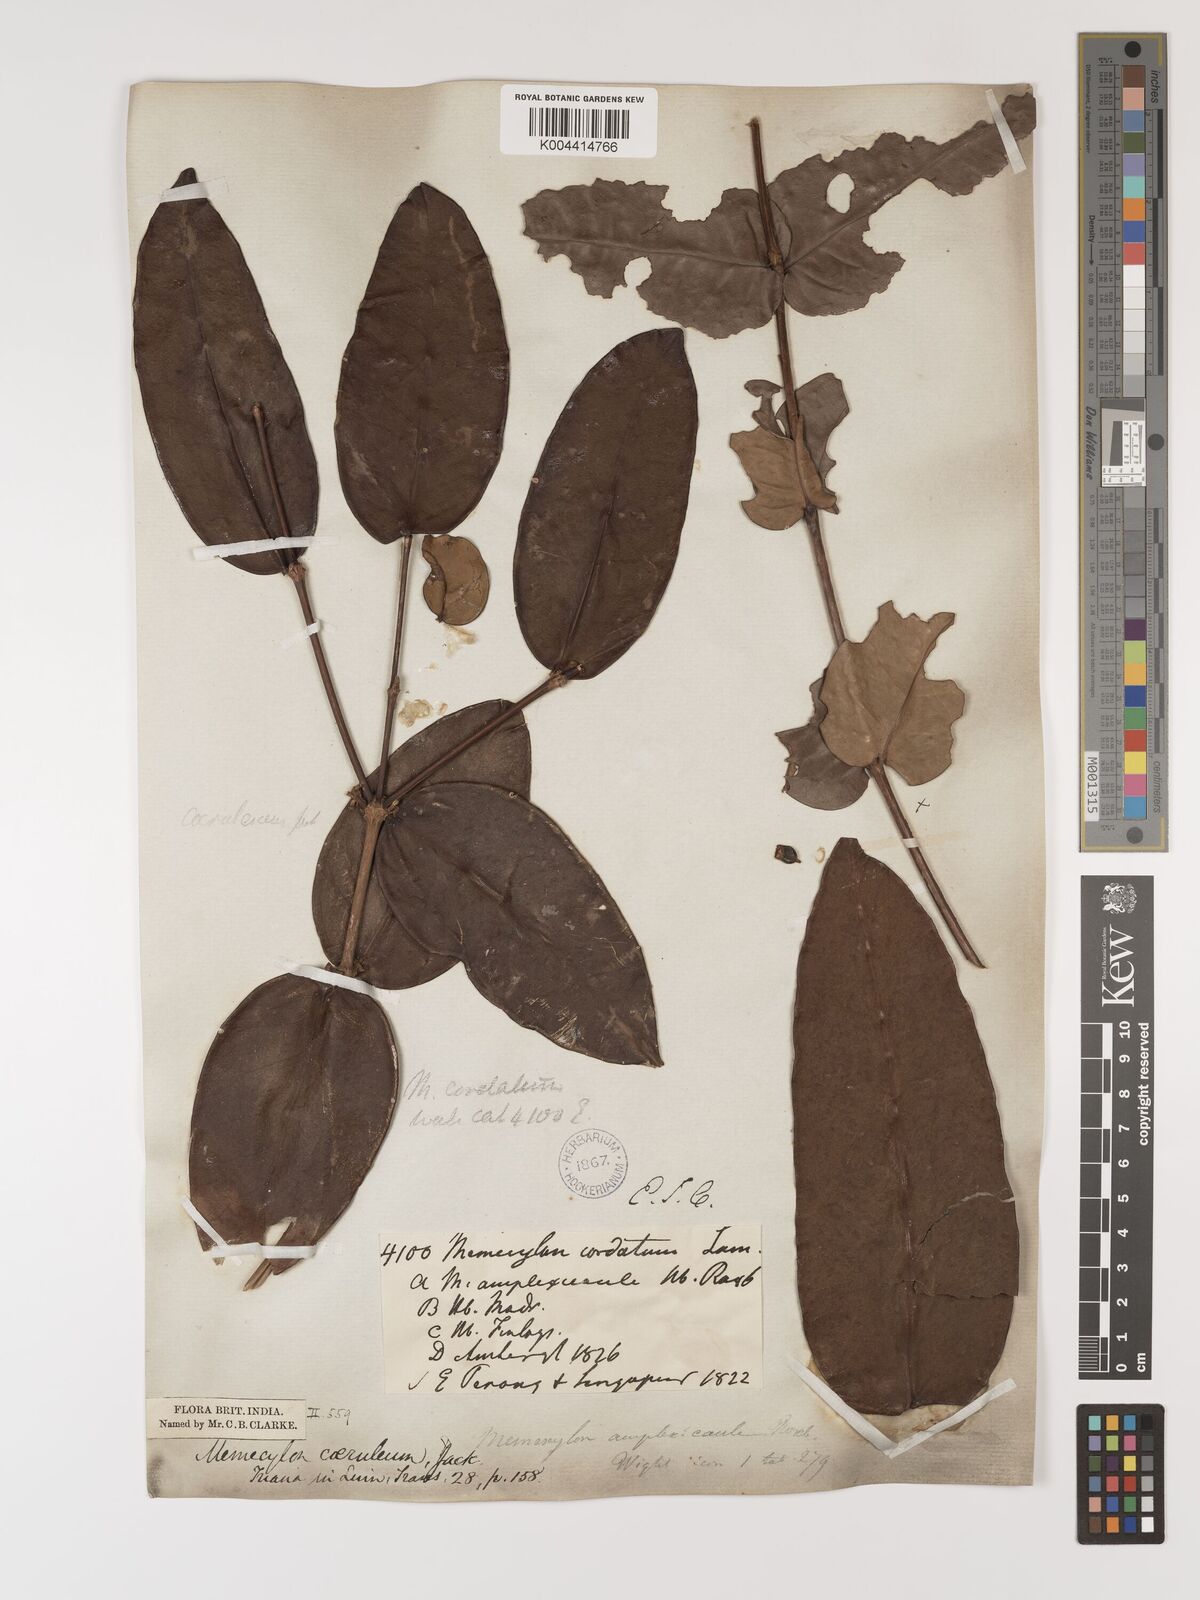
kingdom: Plantae
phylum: Tracheophyta
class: Magnoliopsida
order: Myrtales
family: Melastomataceae
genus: Memecylon
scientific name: Memecylon
